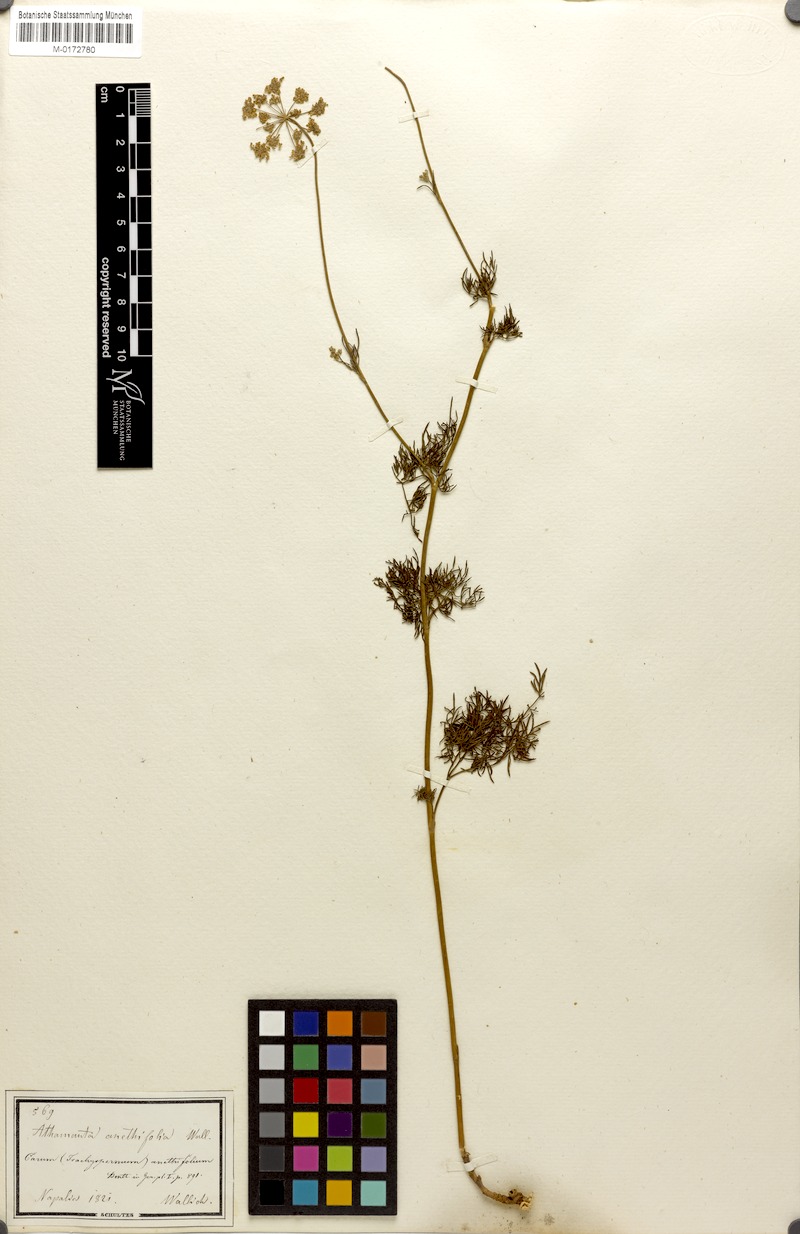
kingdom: Plantae
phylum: Tracheophyta
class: Magnoliopsida
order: Apiales
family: Apiaceae
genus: Psammogeton
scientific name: Psammogeton anethifolium
